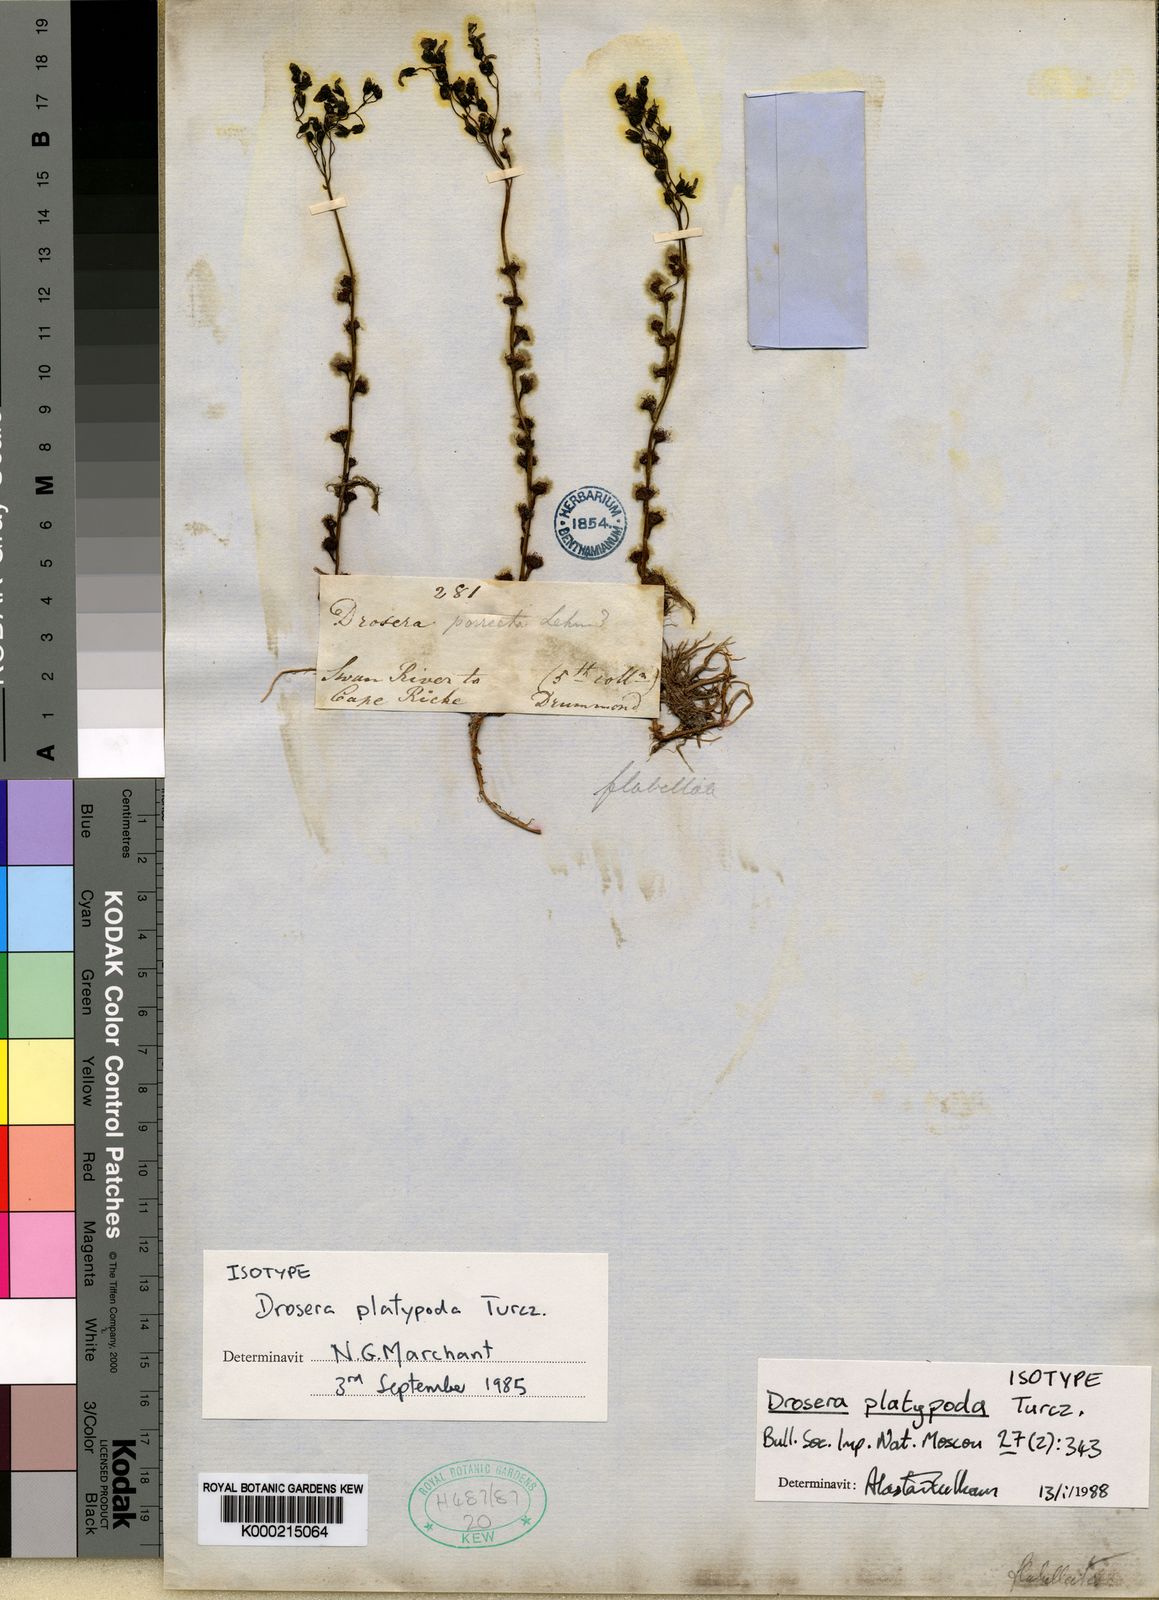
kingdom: Plantae
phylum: Tracheophyta
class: Magnoliopsida
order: Caryophyllales
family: Droseraceae
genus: Drosera
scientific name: Drosera platypoda
